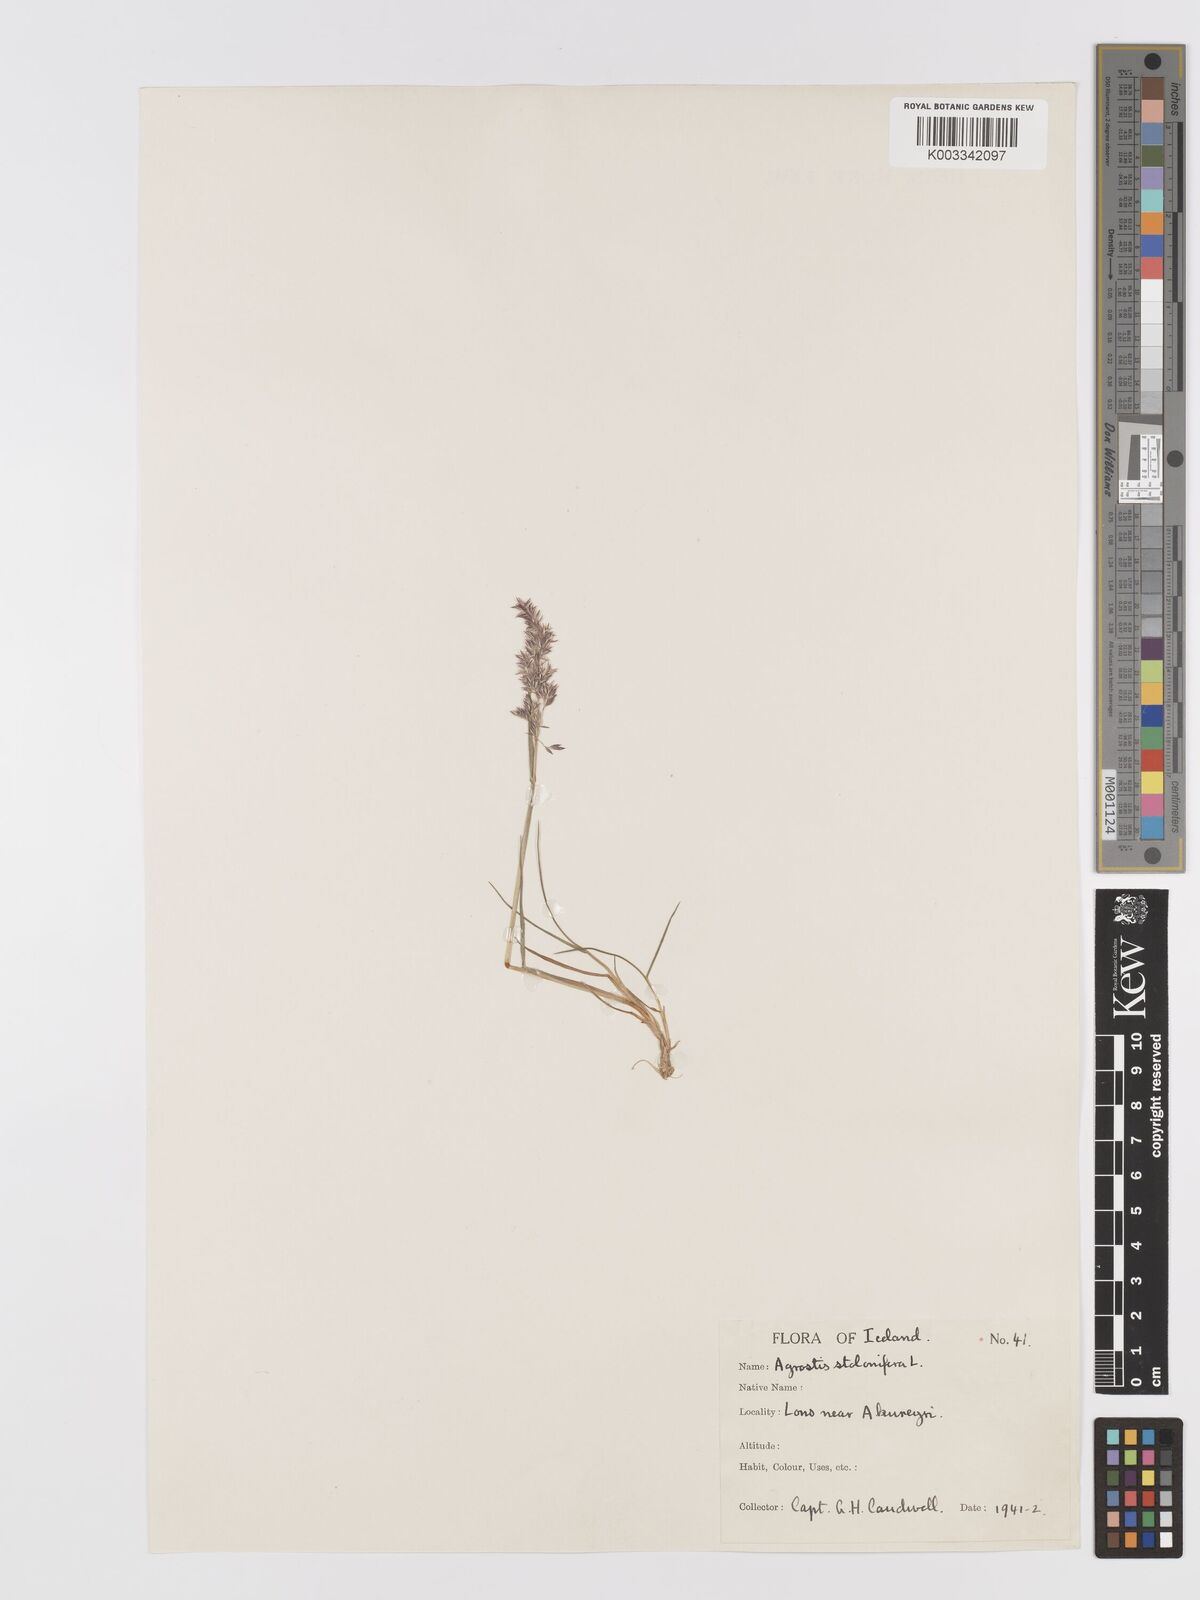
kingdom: Plantae
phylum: Tracheophyta
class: Liliopsida
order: Poales
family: Poaceae
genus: Agrostis
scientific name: Agrostis stolonifera
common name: Creeping bentgrass
